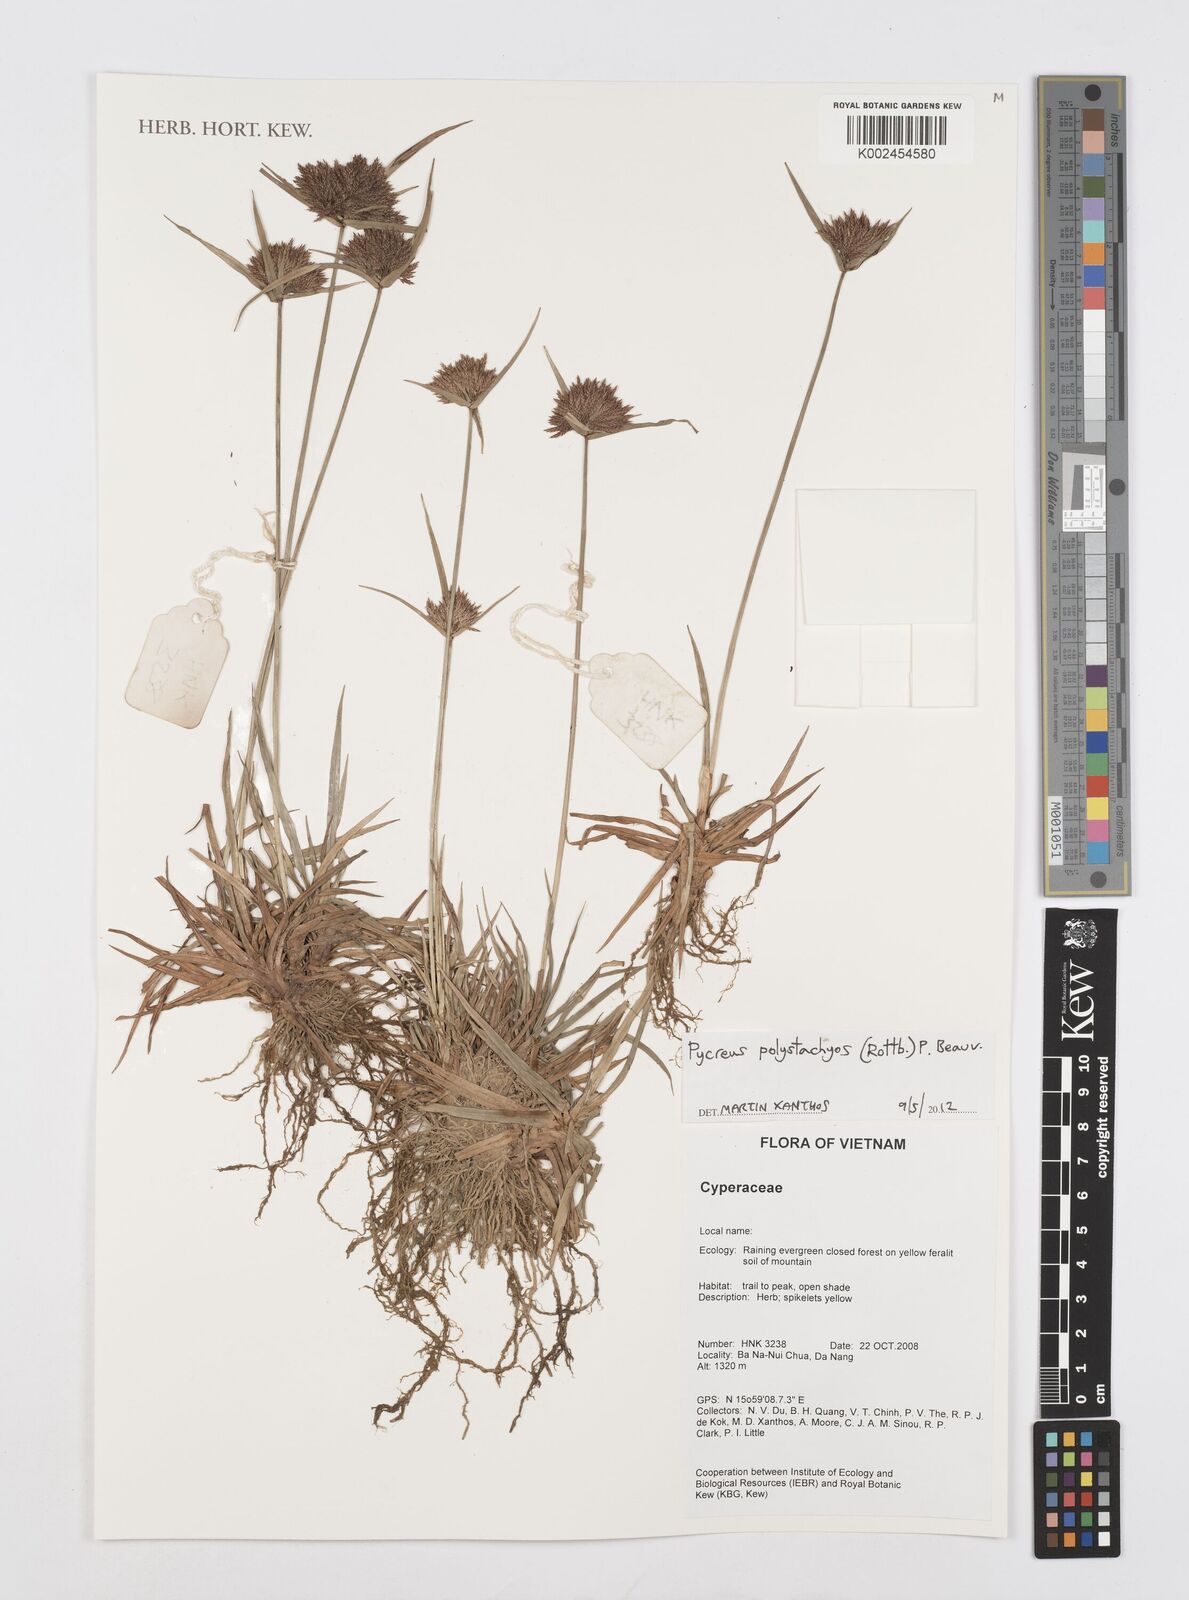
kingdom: Plantae
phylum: Tracheophyta
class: Liliopsida
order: Poales
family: Cyperaceae
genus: Cyperus
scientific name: Cyperus polystachyos
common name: Bunchy flat sedge
